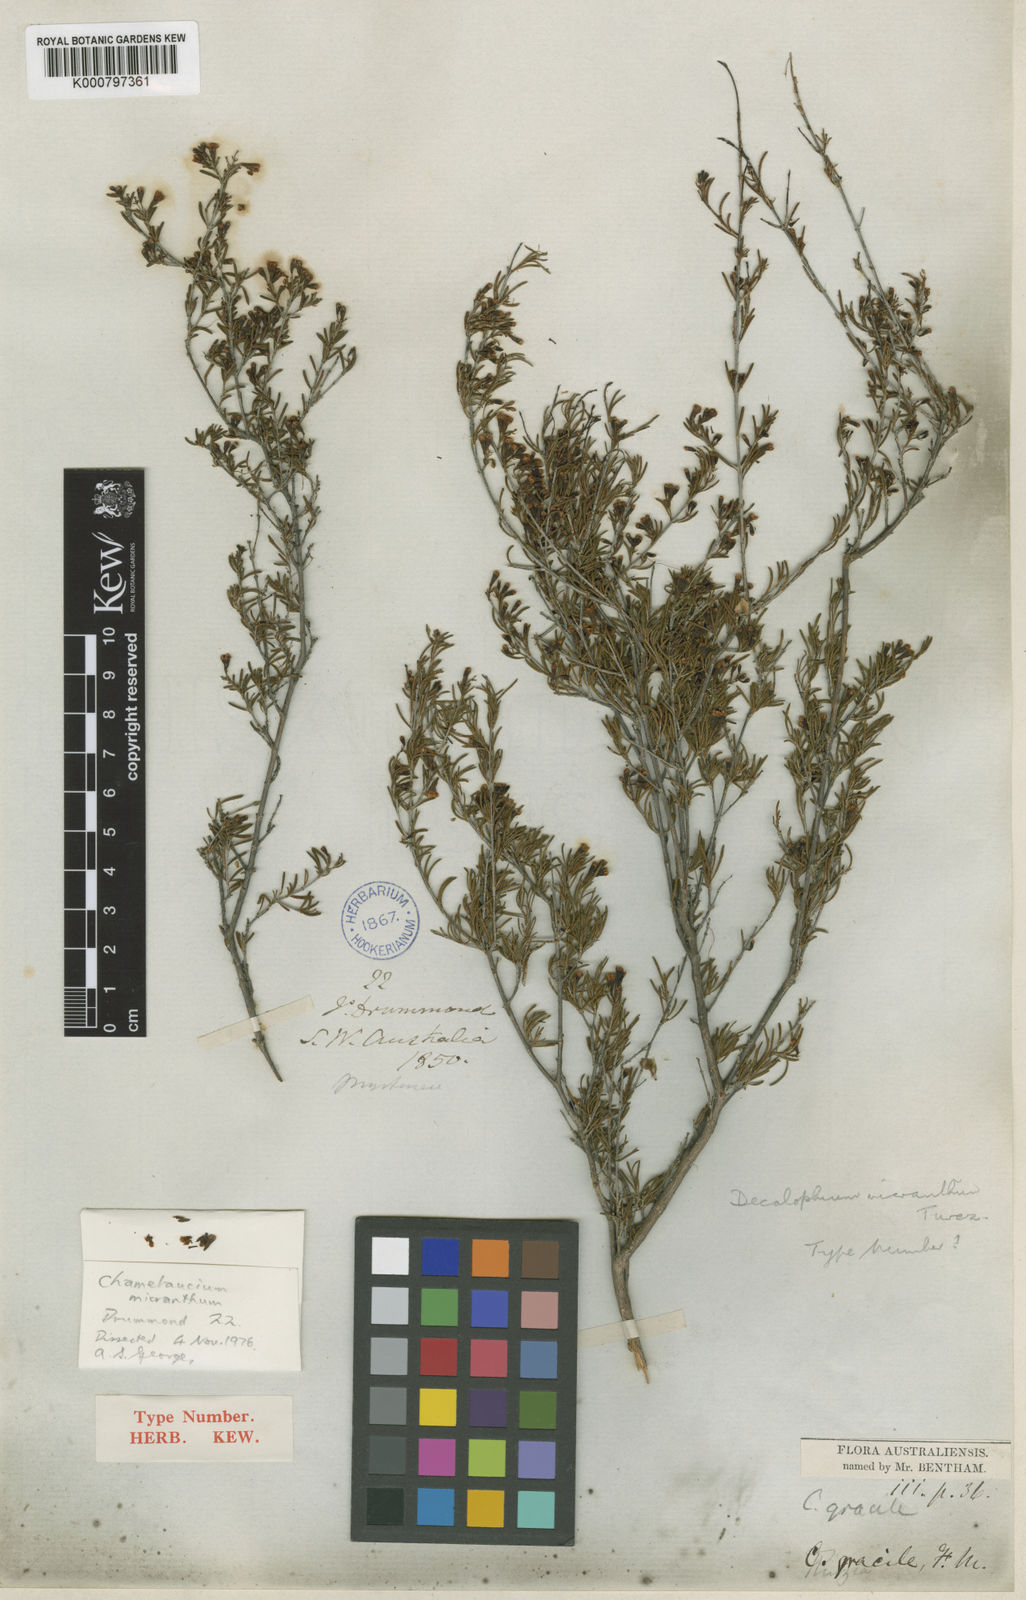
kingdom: Plantae
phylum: Tracheophyta
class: Magnoliopsida
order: Myrtales
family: Myrtaceae
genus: Chamelaucium
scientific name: Chamelaucium micranthum
